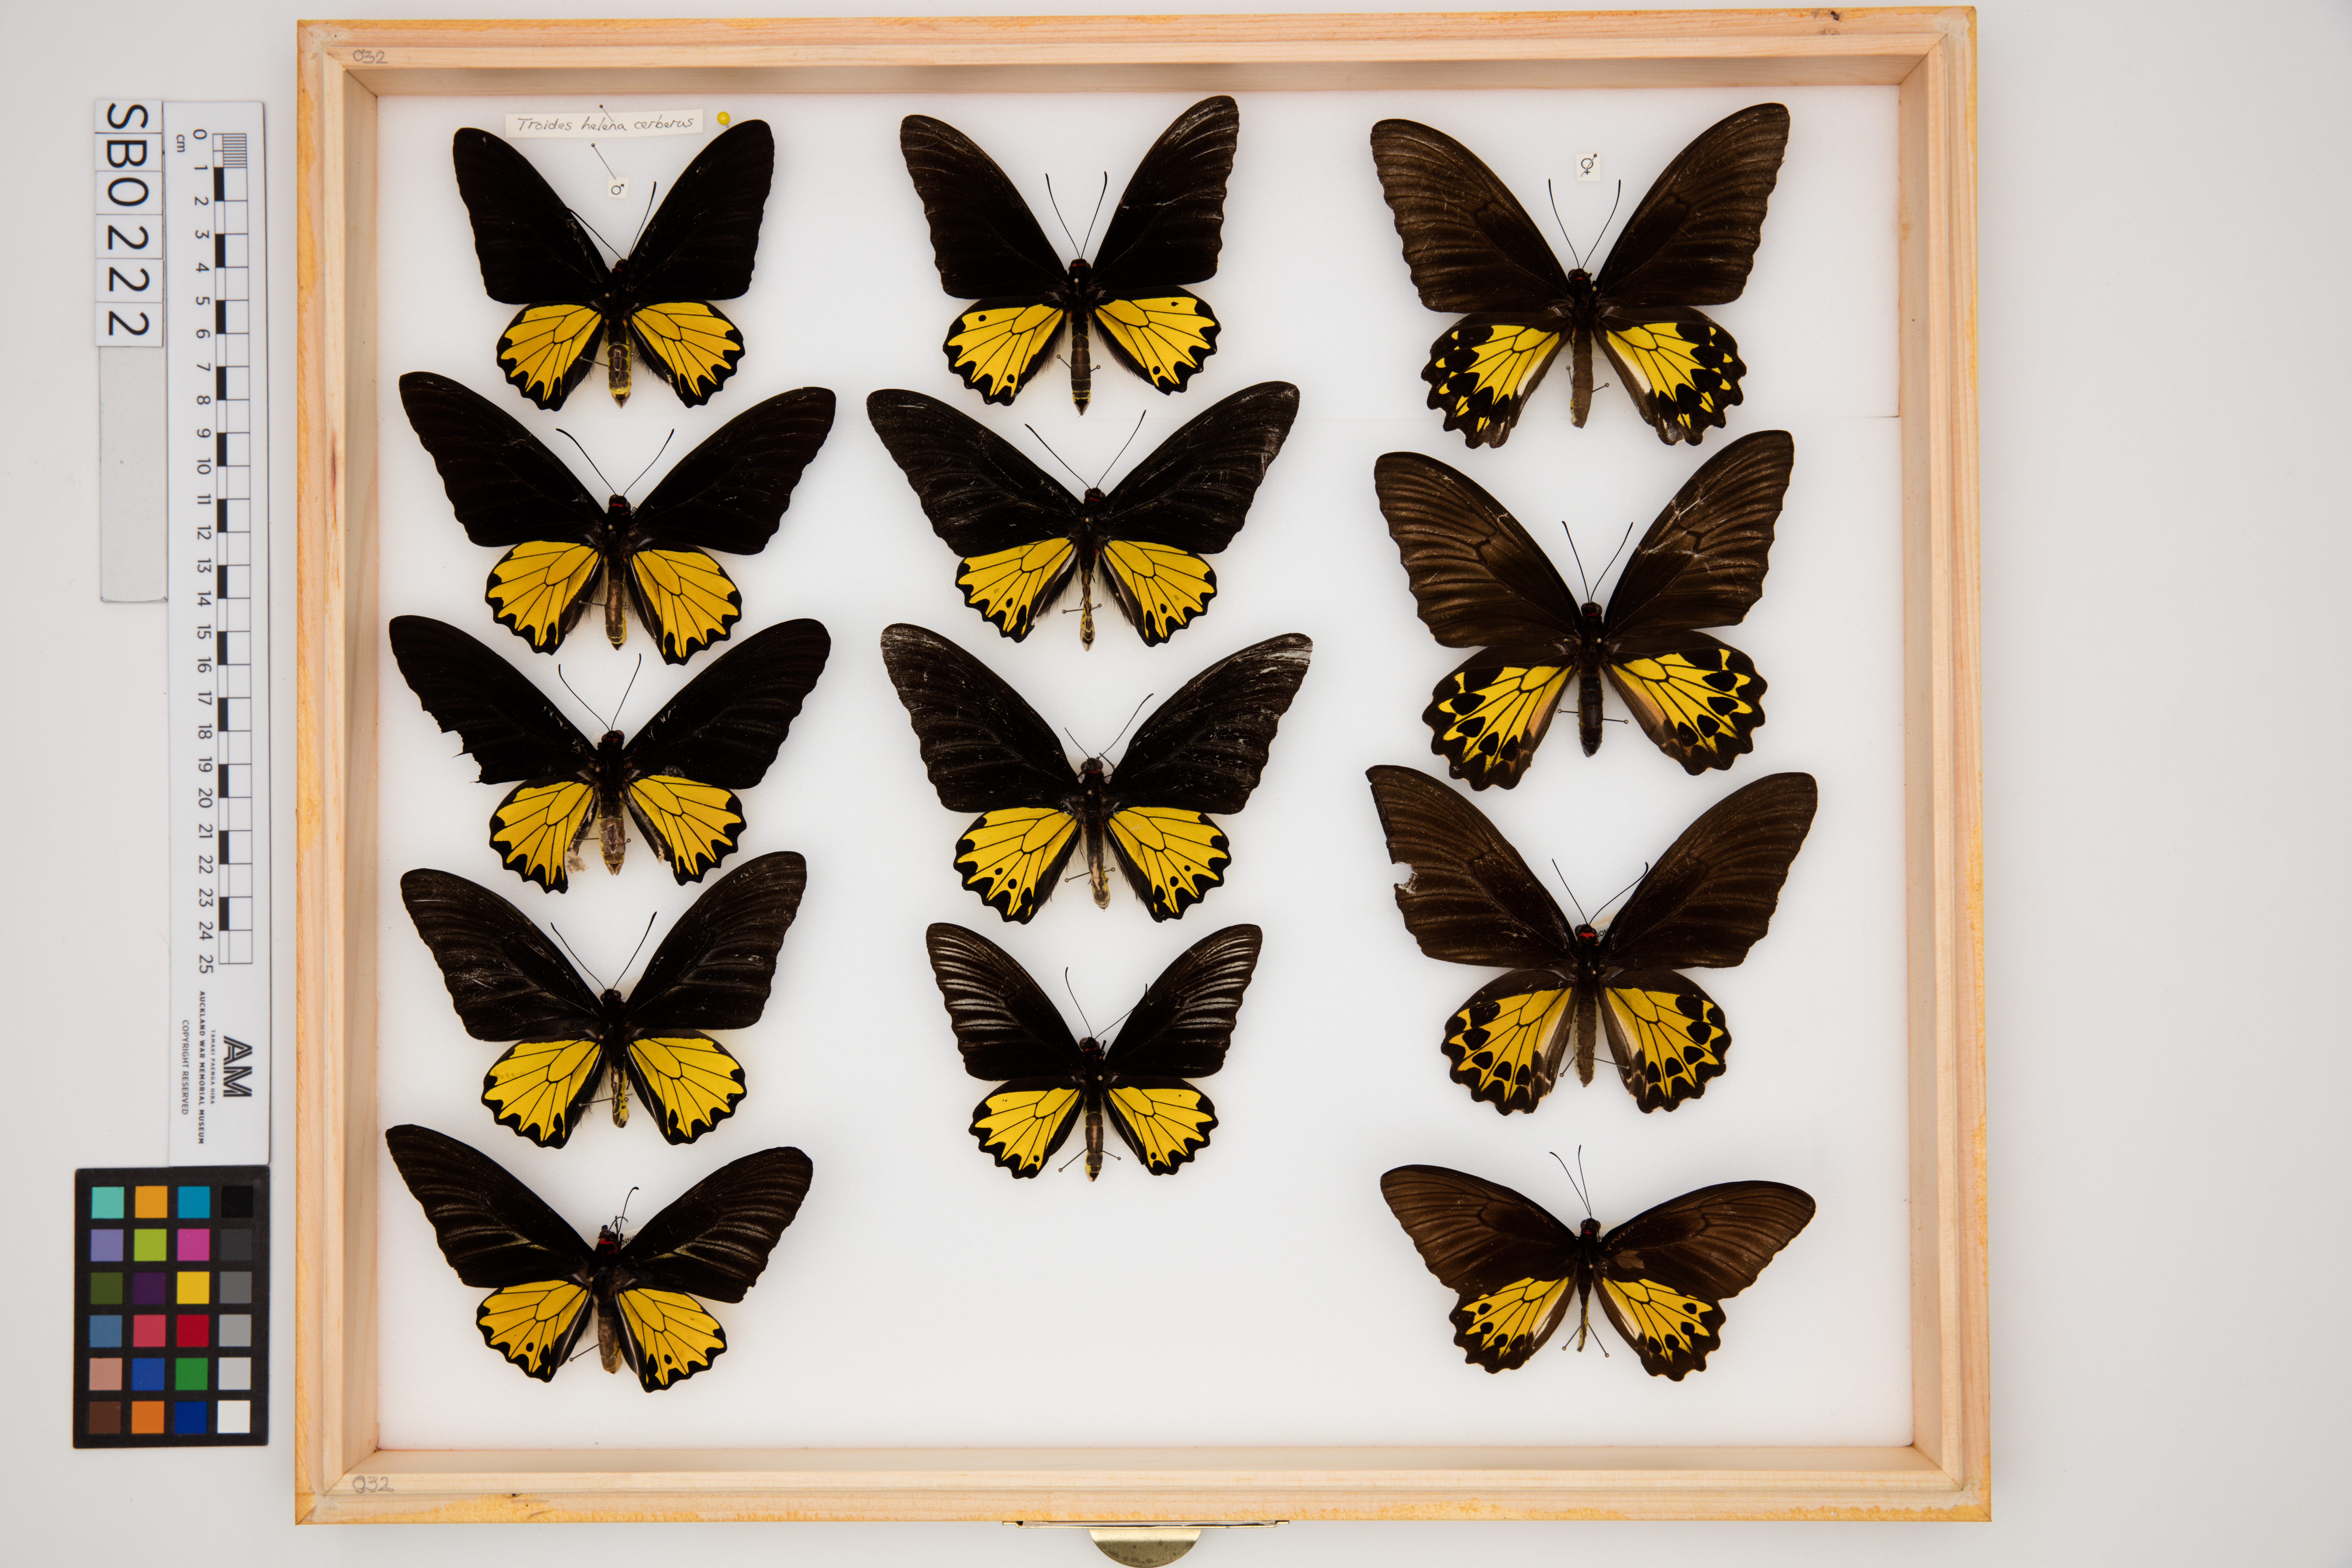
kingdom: Animalia
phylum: Arthropoda
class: Insecta
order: Lepidoptera
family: Papilionidae
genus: Troides
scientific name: Troides helena
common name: Common birdwing
